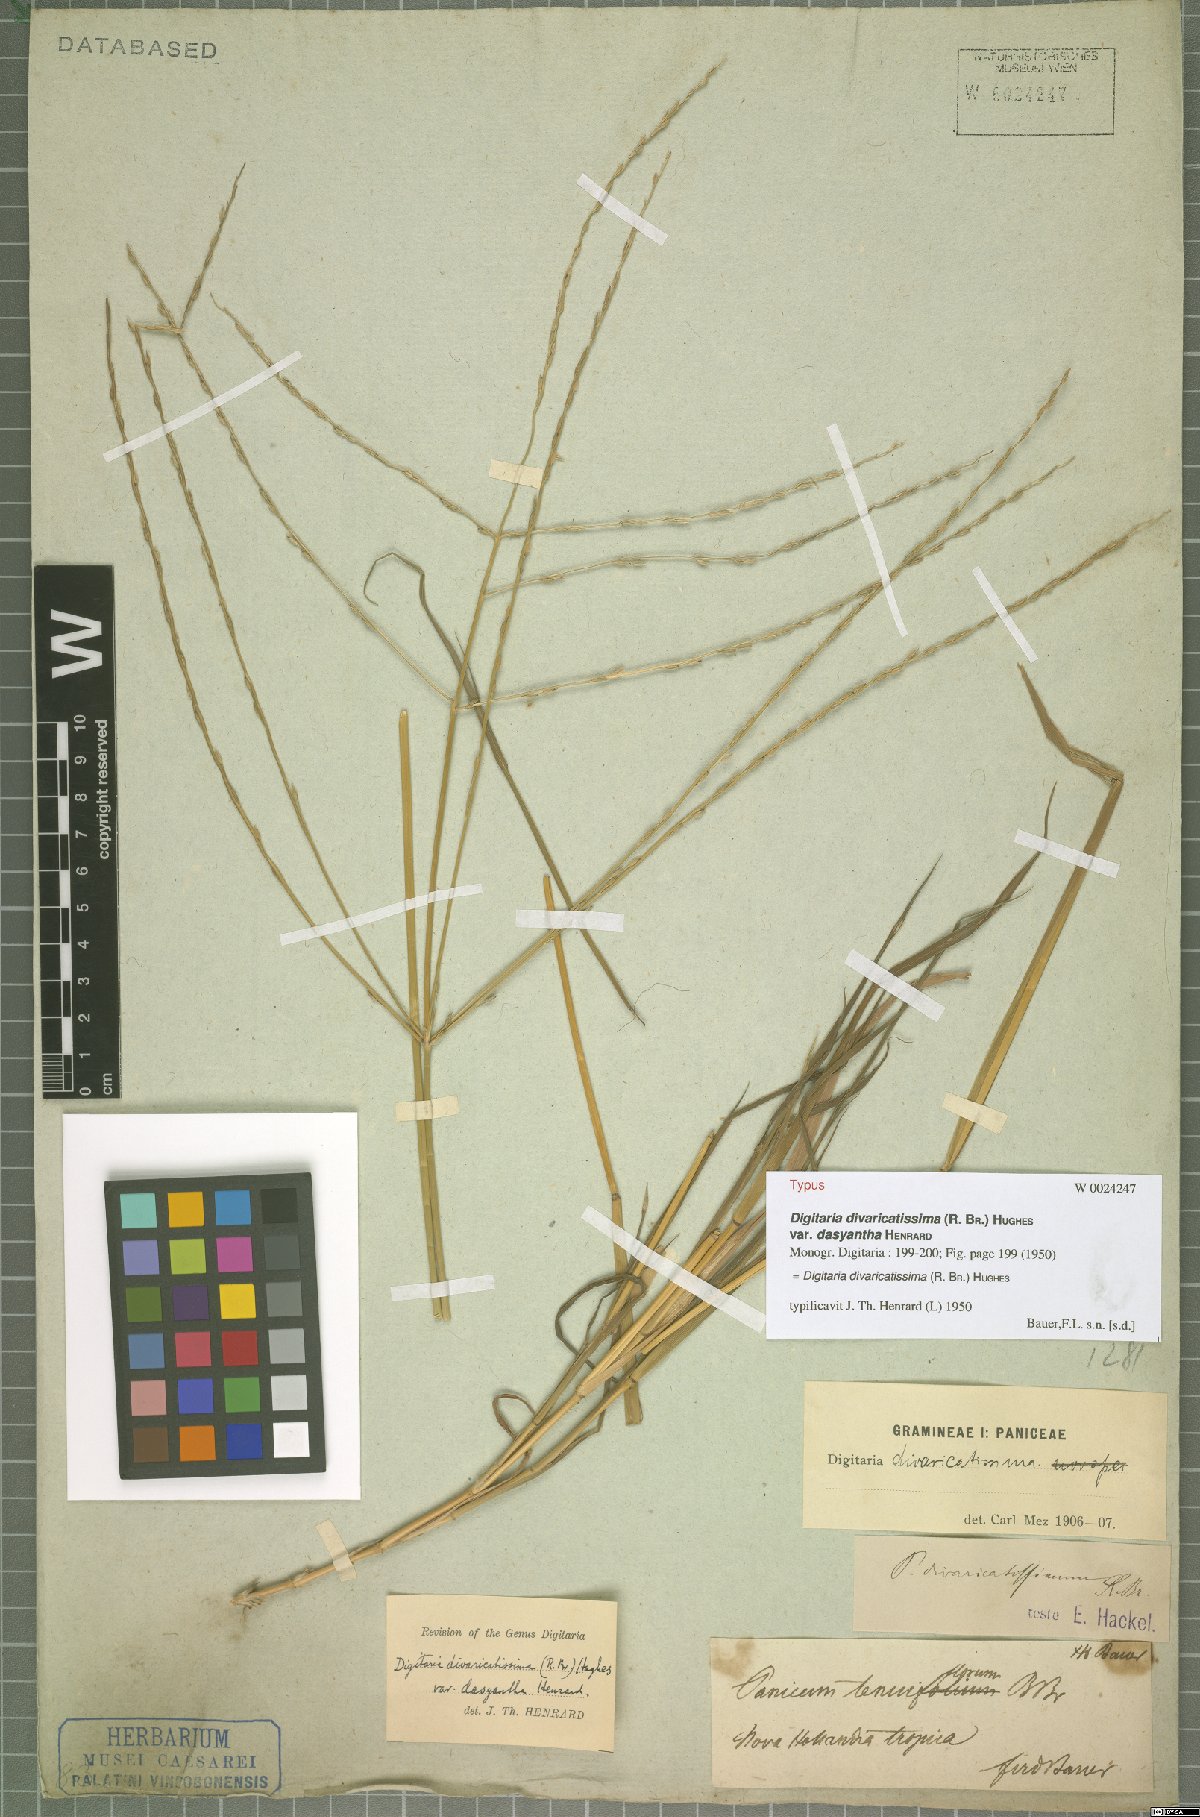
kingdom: Plantae
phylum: Tracheophyta
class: Liliopsida
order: Poales
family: Poaceae
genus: Digitaria
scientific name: Digitaria divaricatissima
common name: Crabgrass
